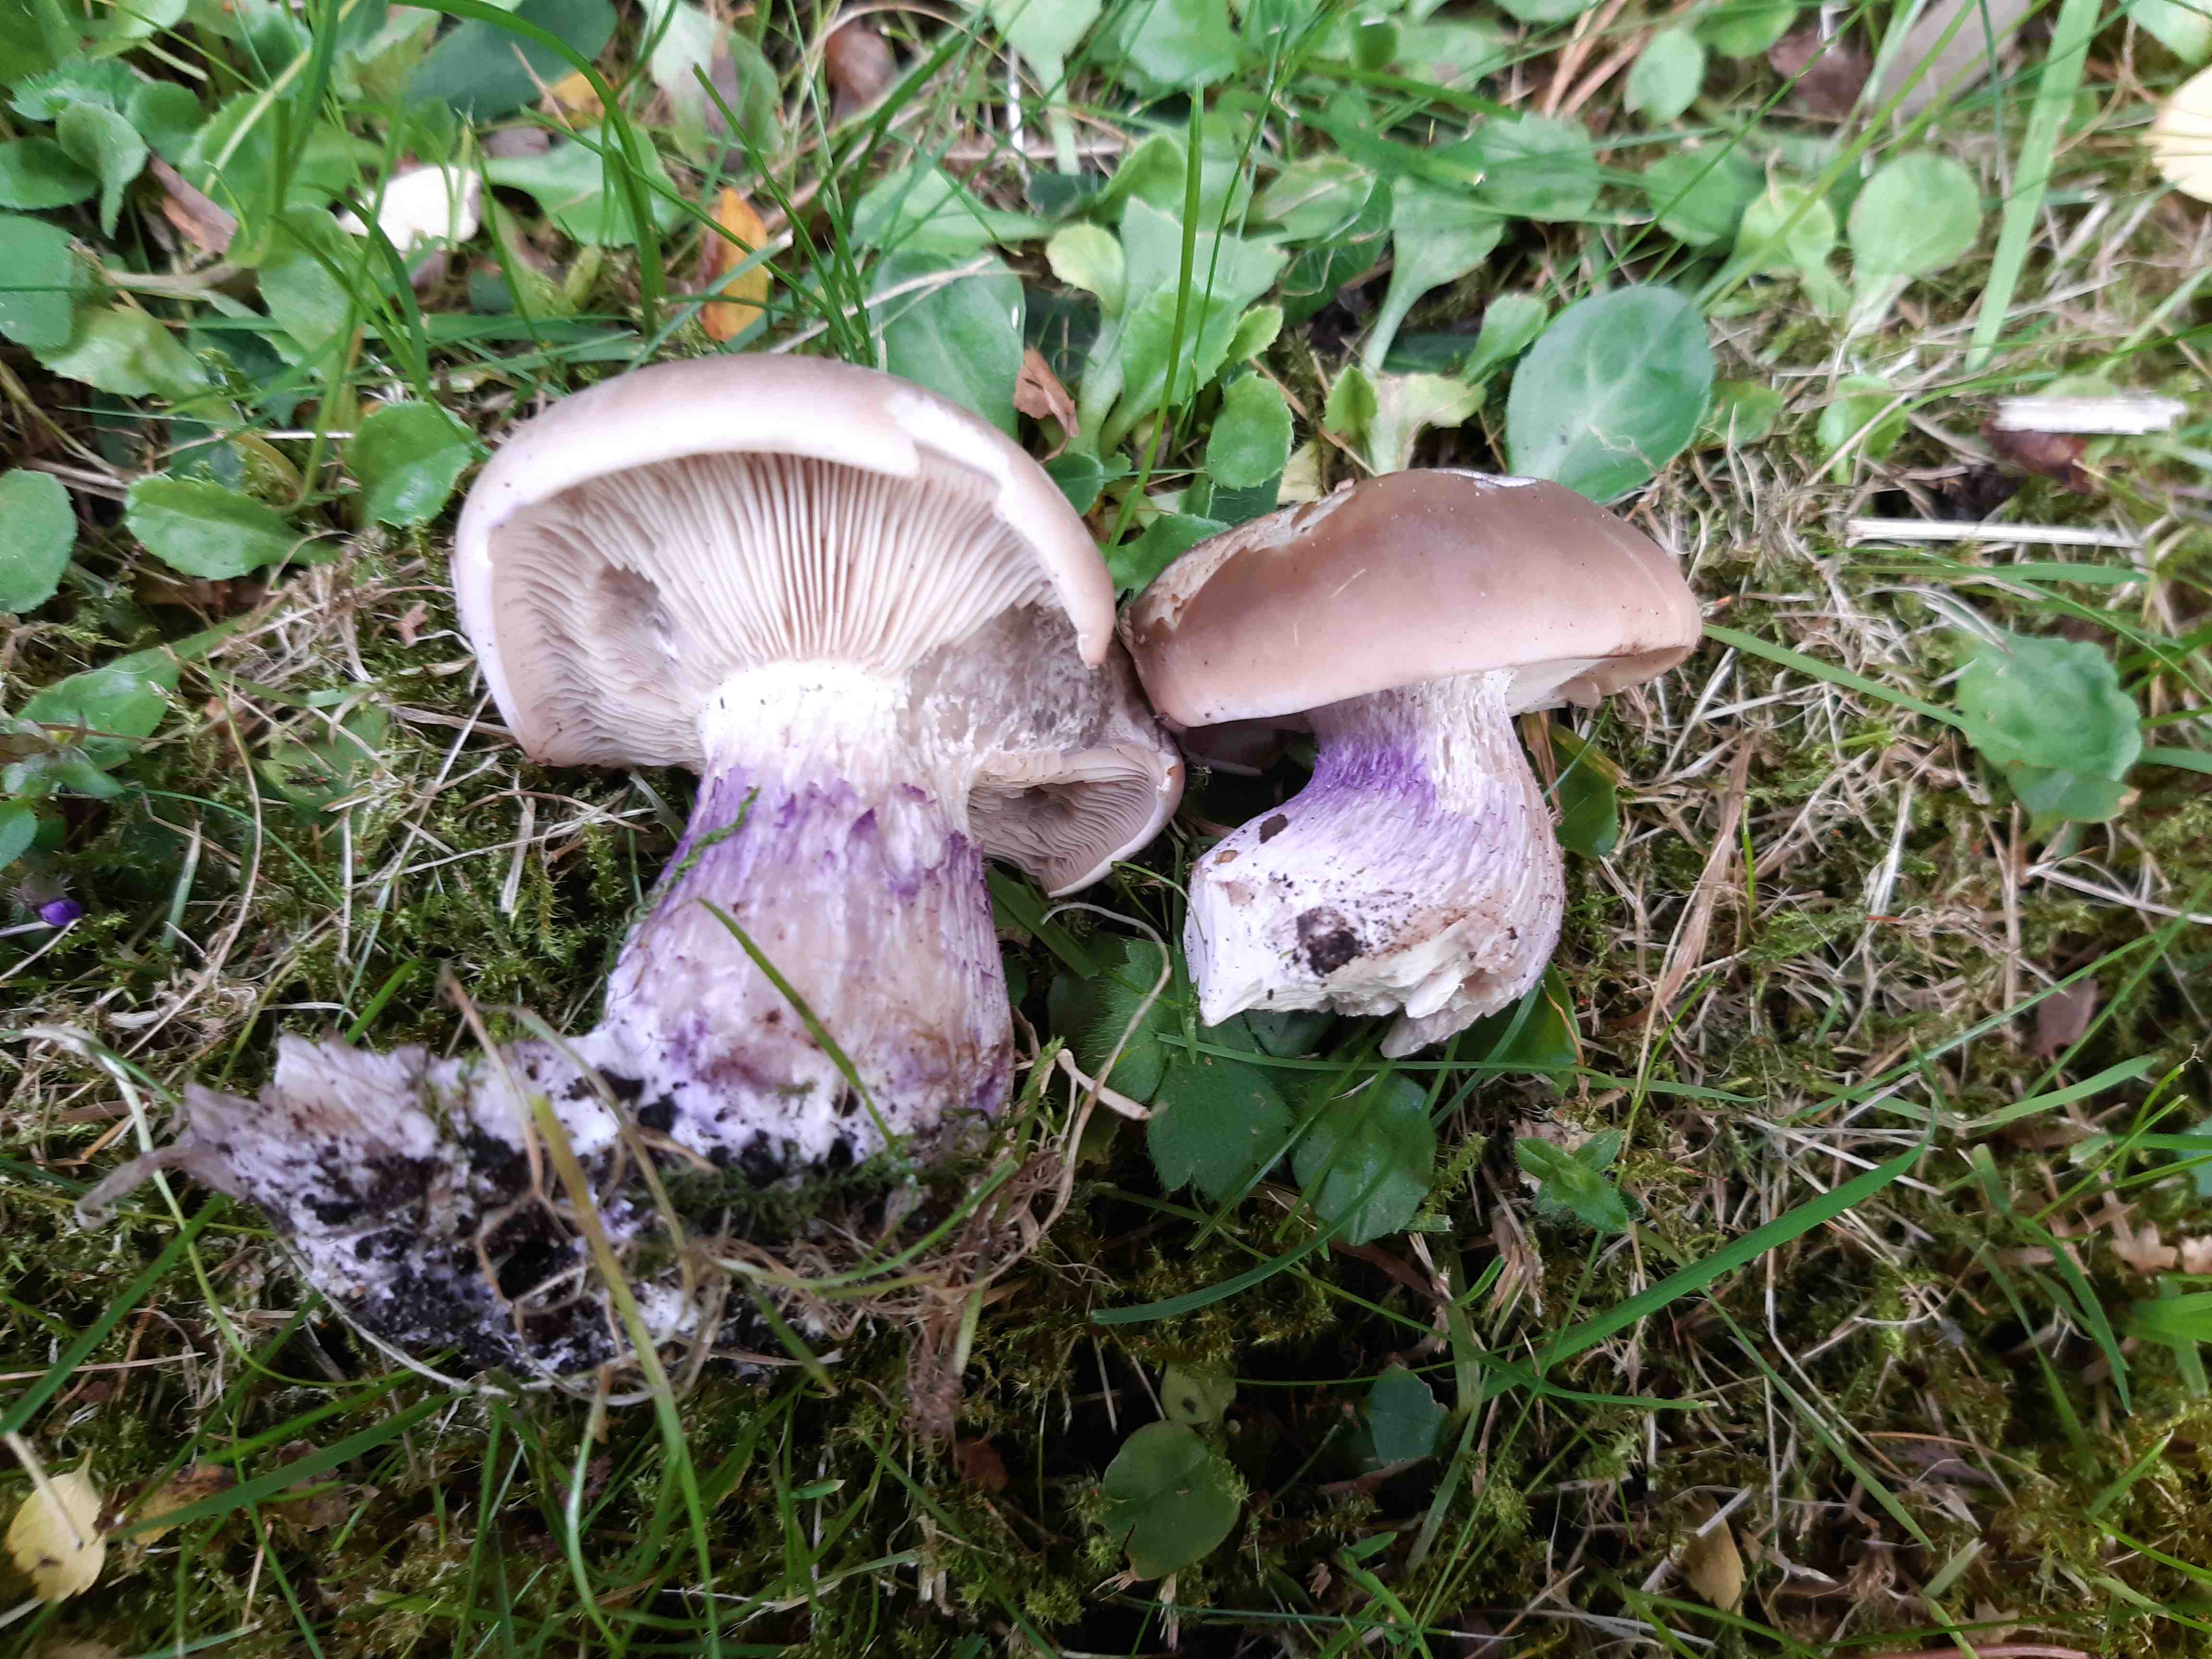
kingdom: Fungi
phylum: Basidiomycota
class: Agaricomycetes
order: Agaricales
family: Tricholomataceae
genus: Lepista
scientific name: Lepista personata
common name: bleg hekseringshat
